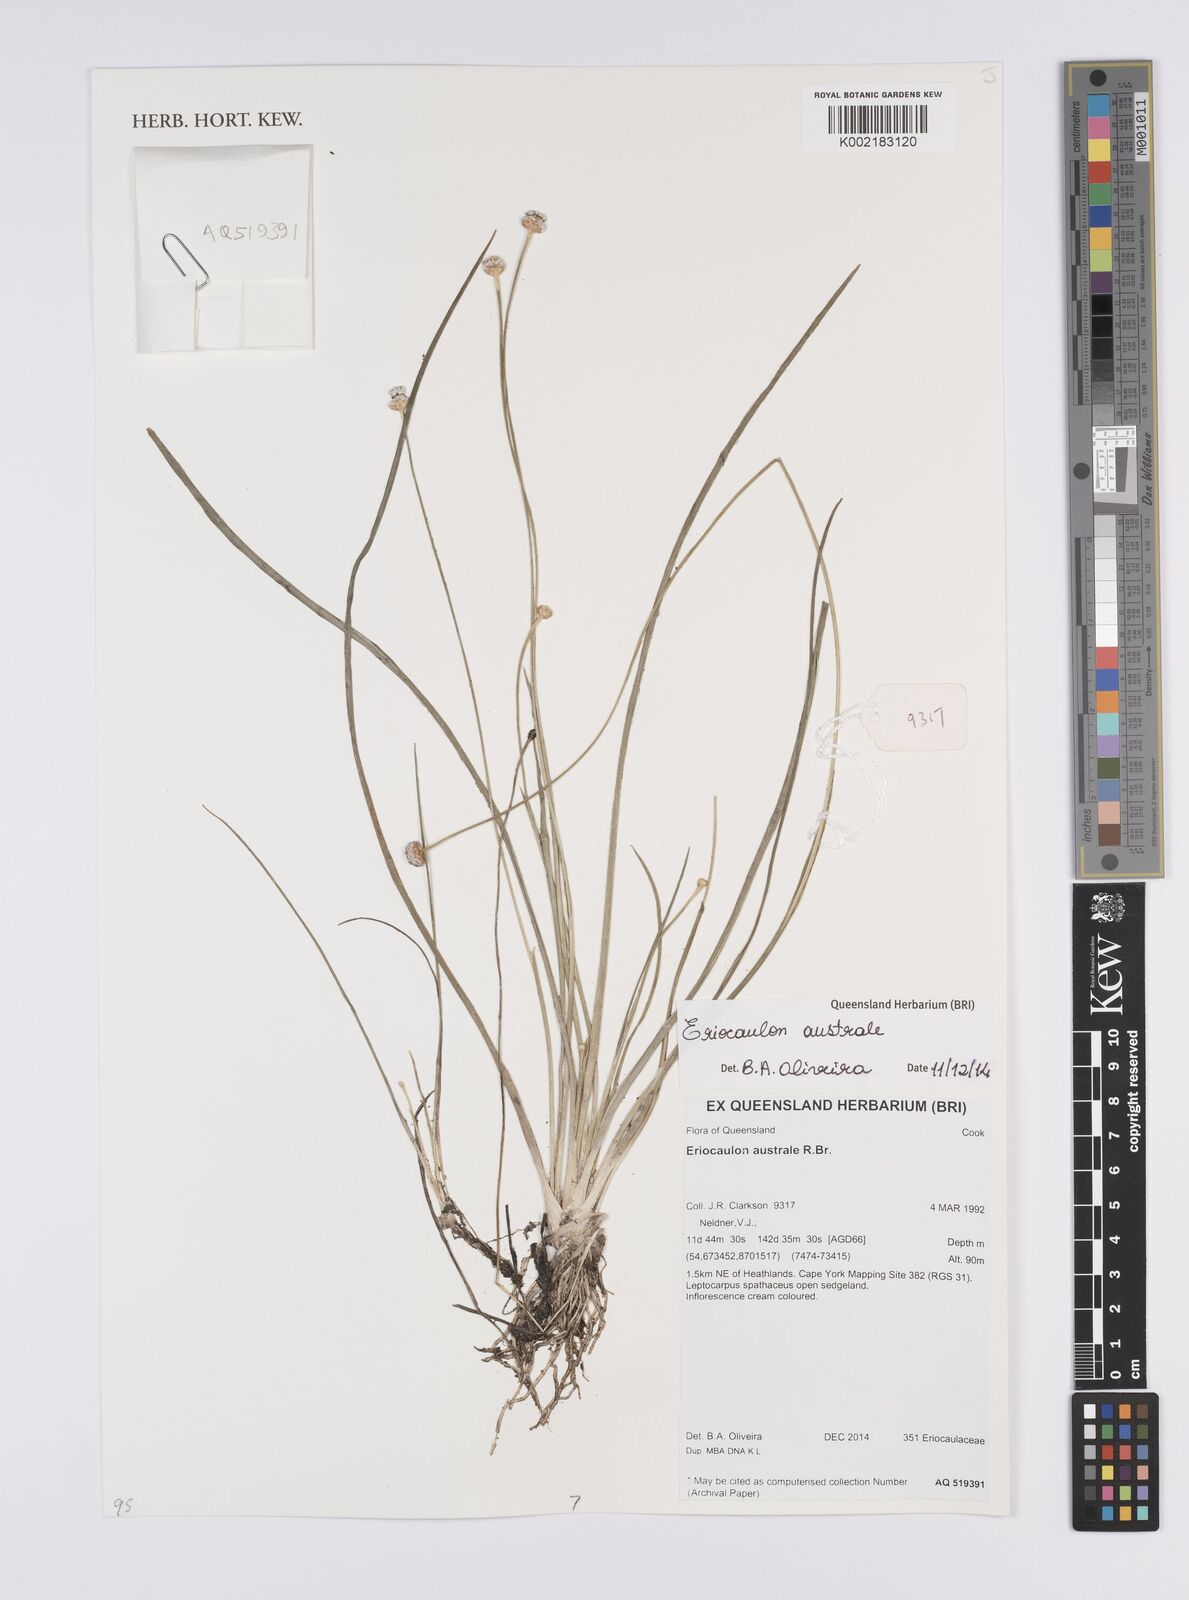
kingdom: Plantae
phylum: Tracheophyta
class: Liliopsida
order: Poales
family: Eriocaulaceae
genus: Eriocaulon
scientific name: Eriocaulon australe
